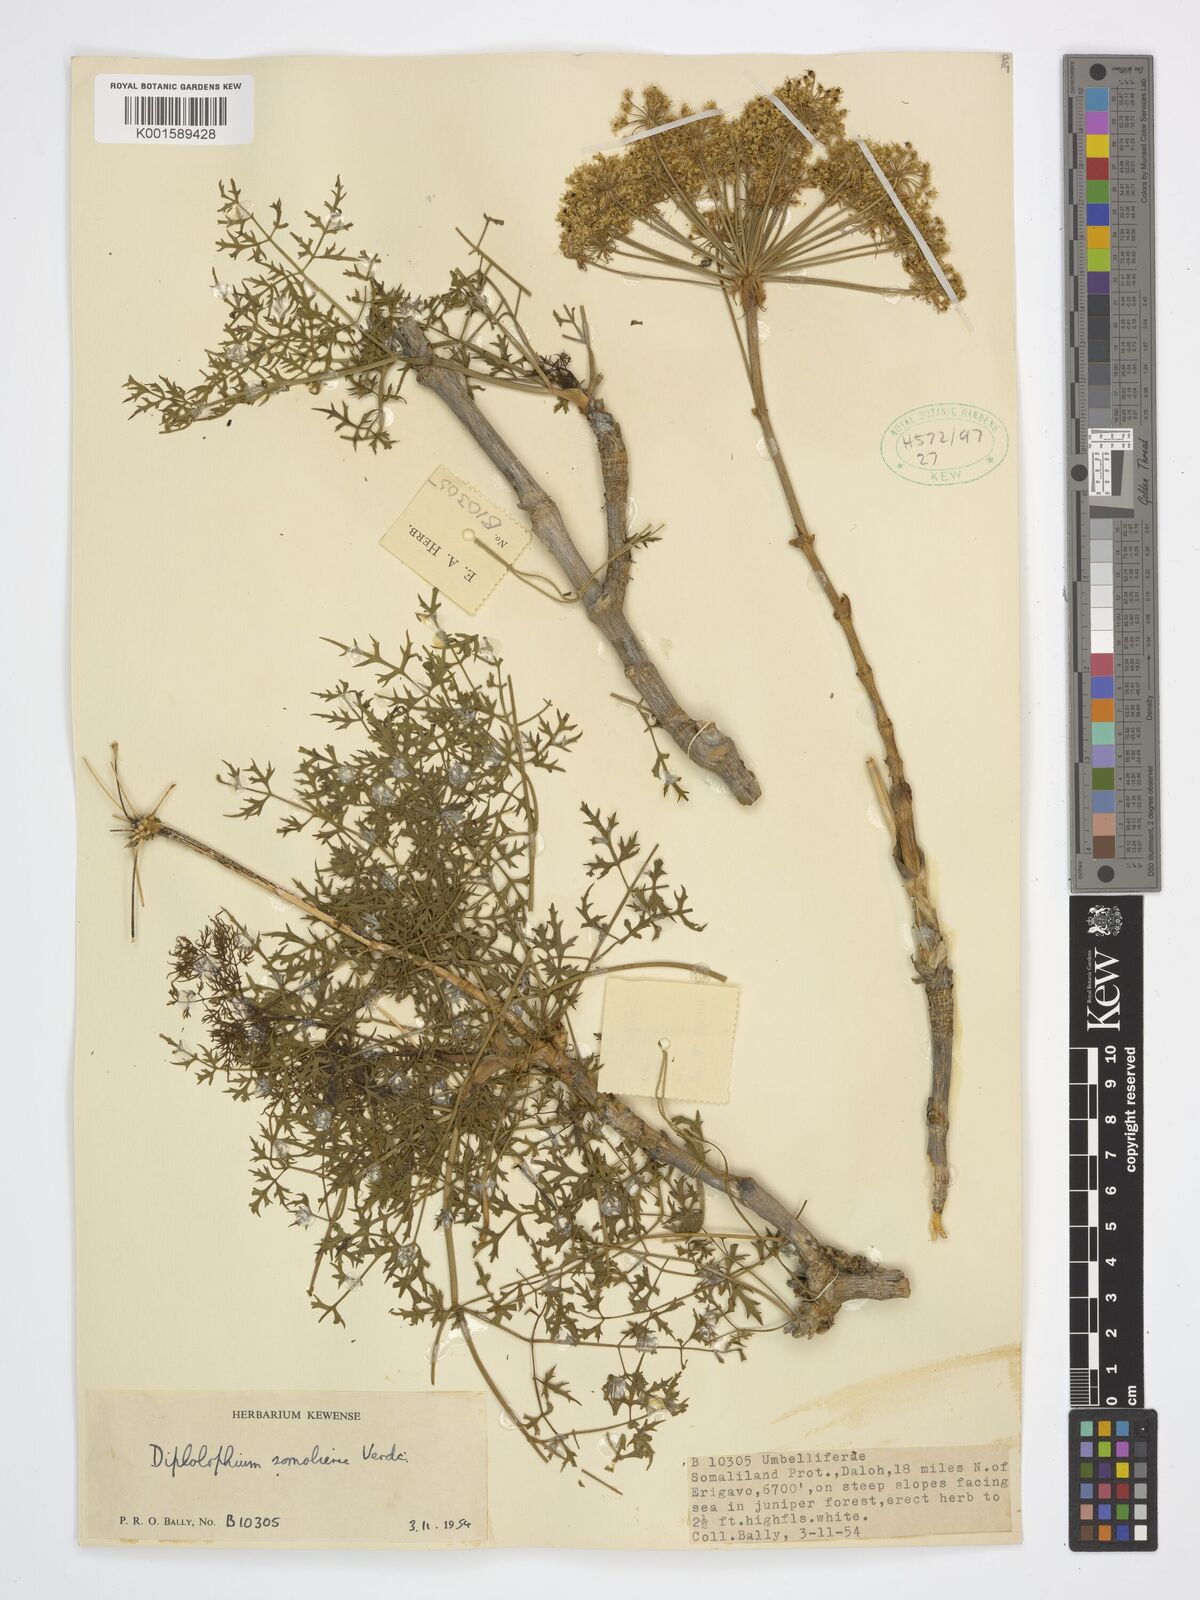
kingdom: Plantae
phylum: Tracheophyta
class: Magnoliopsida
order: Apiales
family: Apiaceae
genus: Diplolophium
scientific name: Diplolophium somaliense
